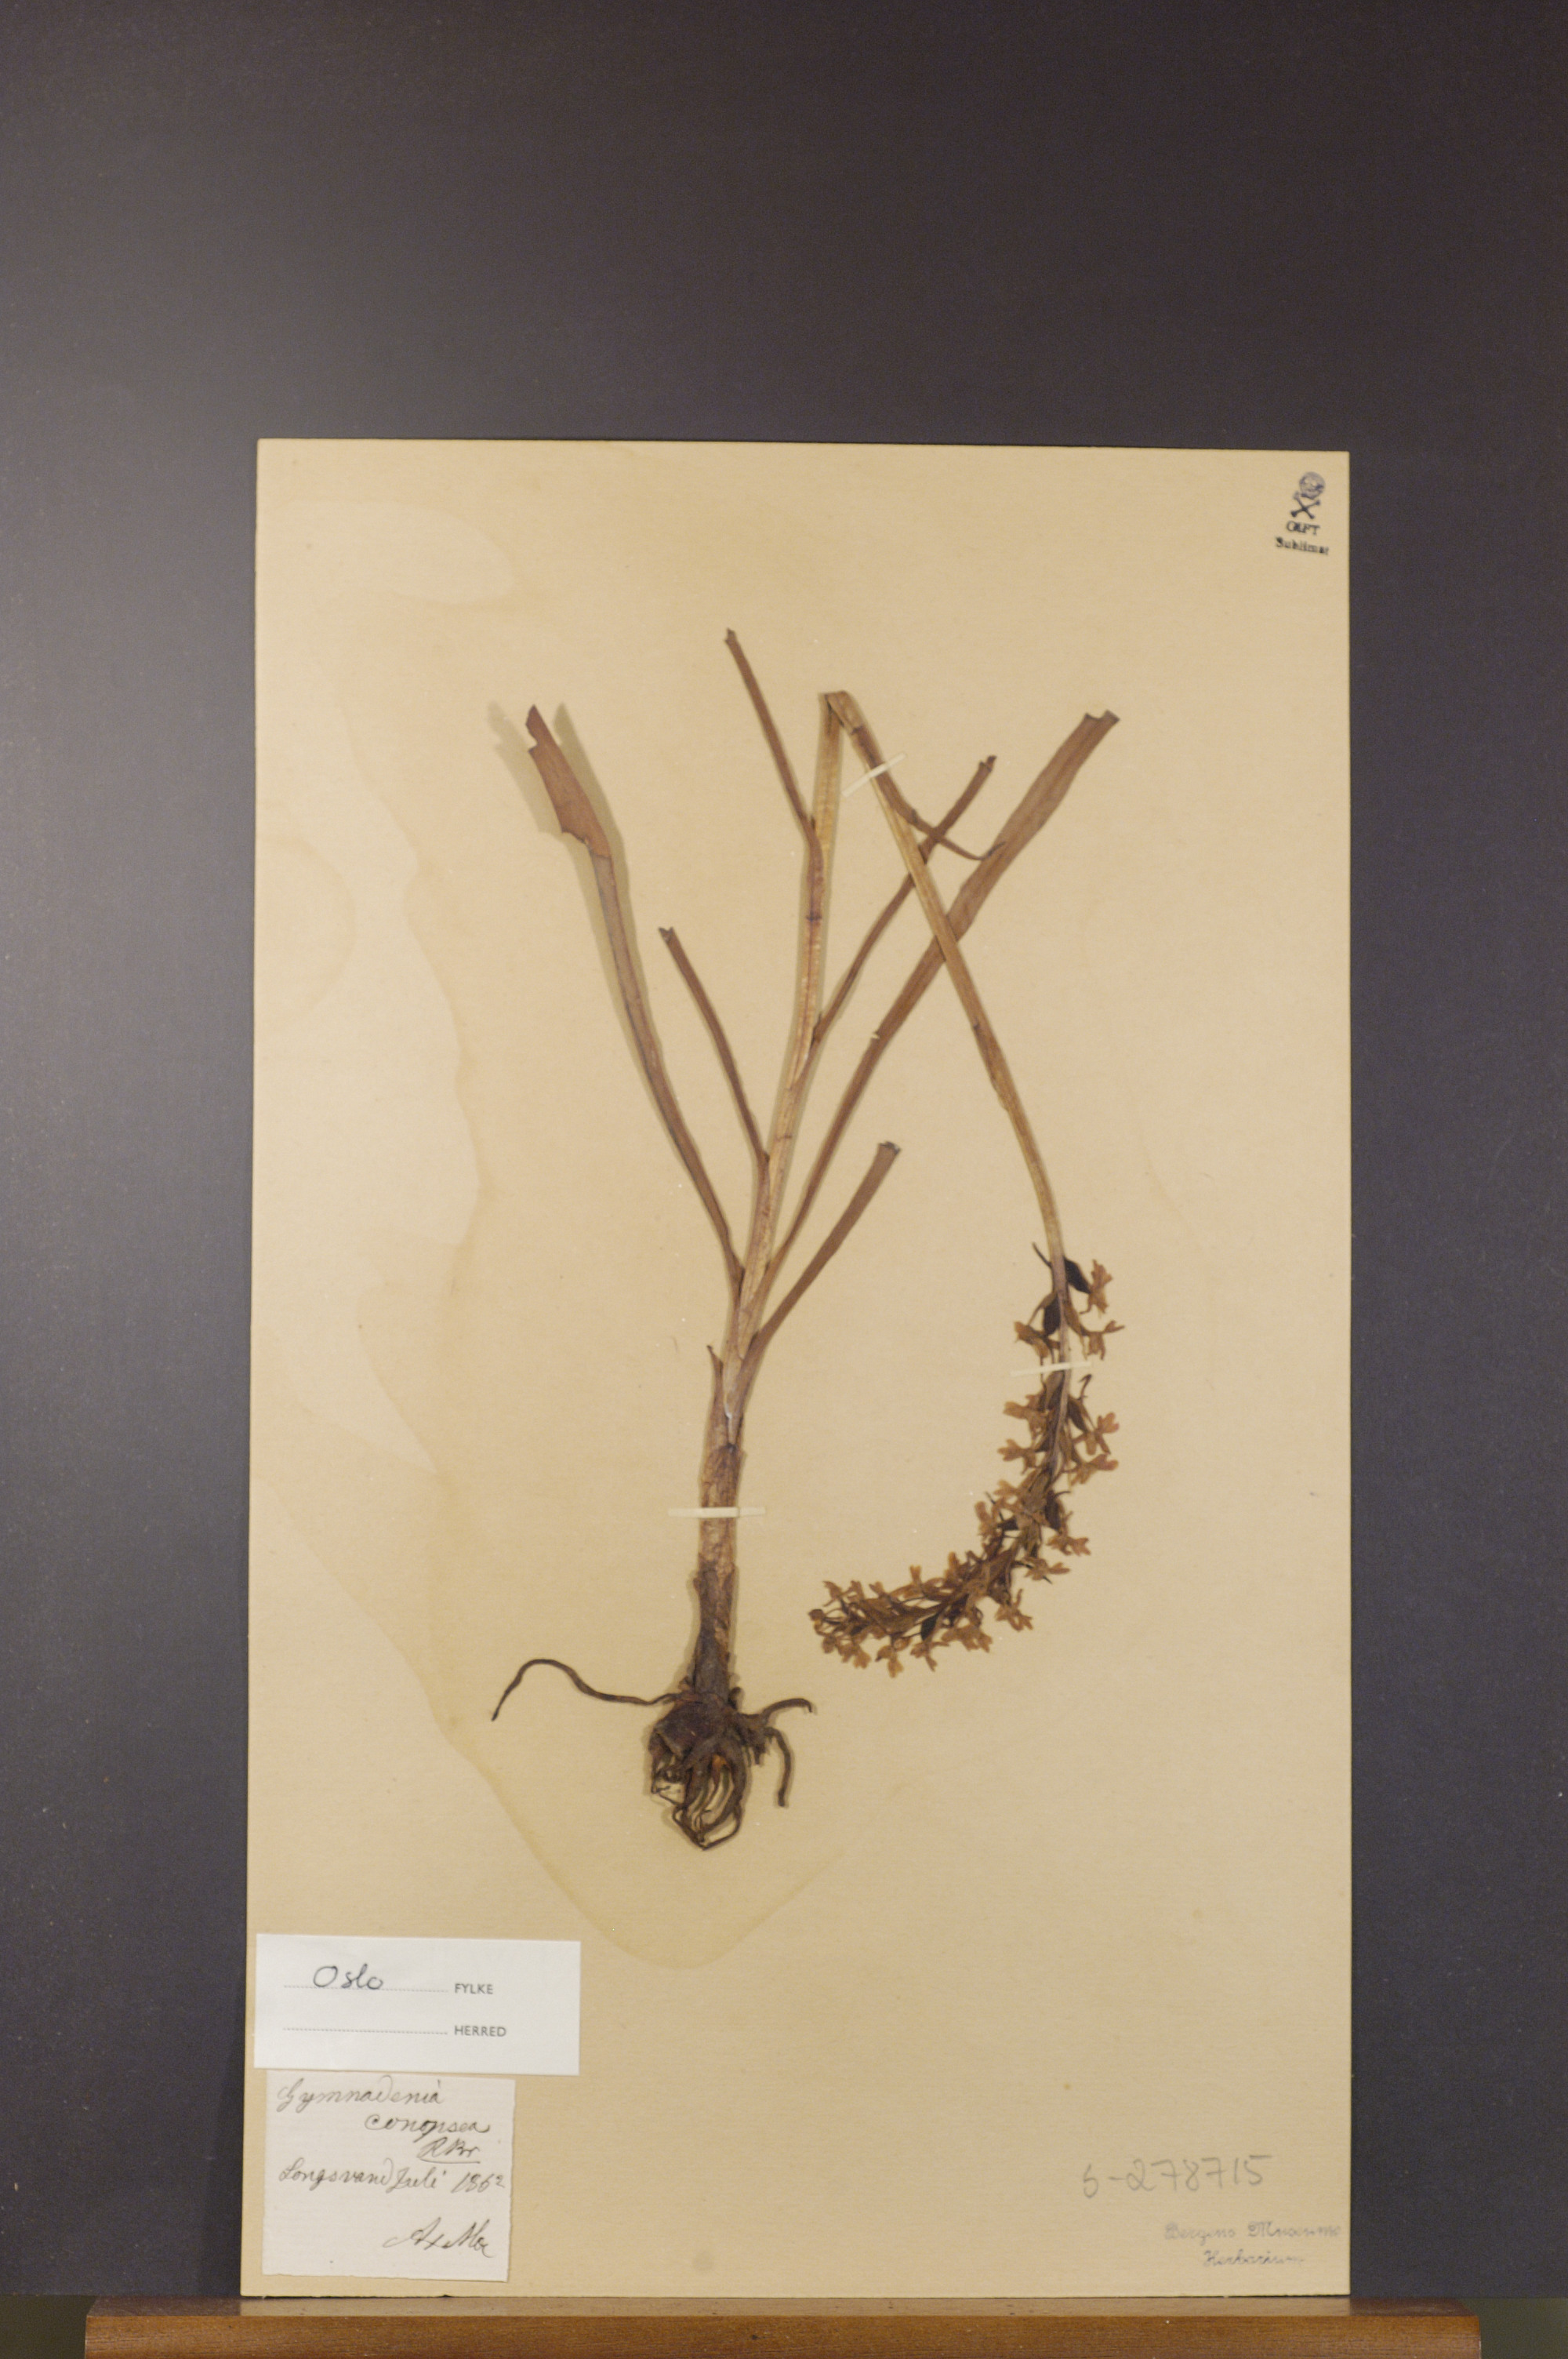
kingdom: Plantae
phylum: Tracheophyta
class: Liliopsida
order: Asparagales
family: Orchidaceae
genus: Gymnadenia
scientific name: Gymnadenia conopsea
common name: Fragrant orchid
